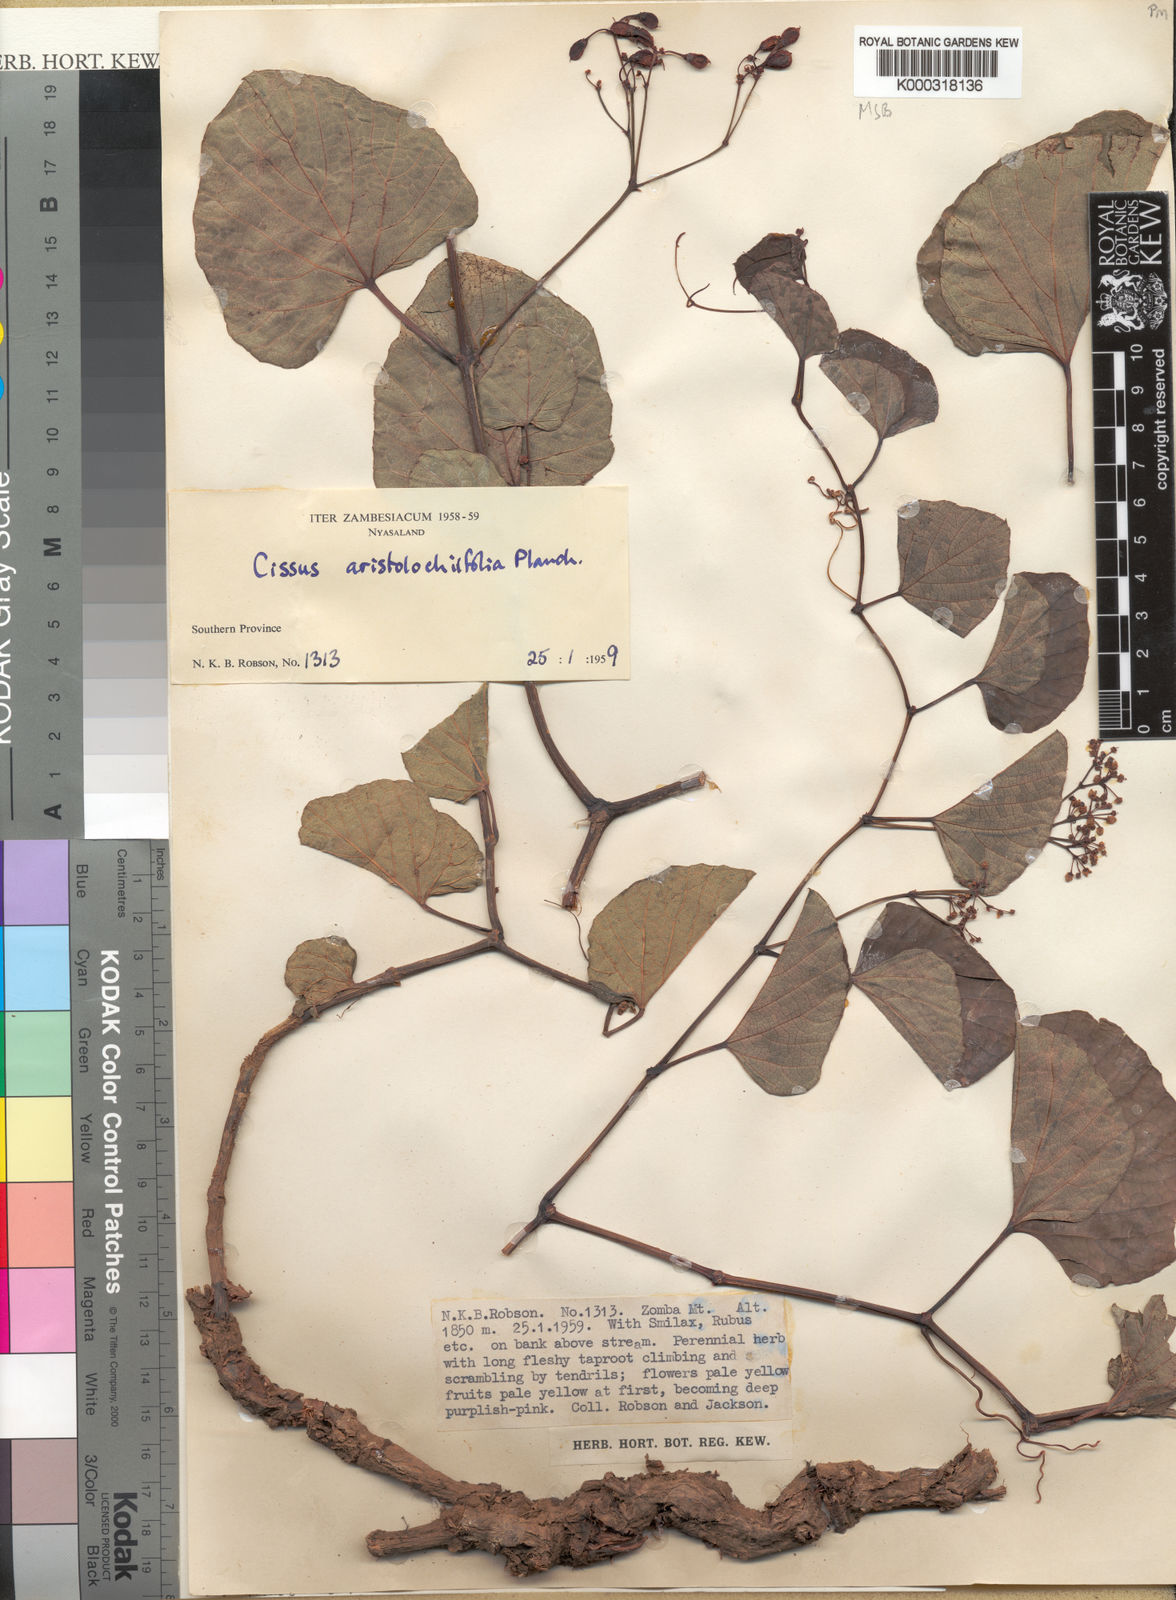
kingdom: Plantae
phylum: Tracheophyta
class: Magnoliopsida
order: Vitales
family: Vitaceae
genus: Cissus
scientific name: Cissus aristolochiifolia
